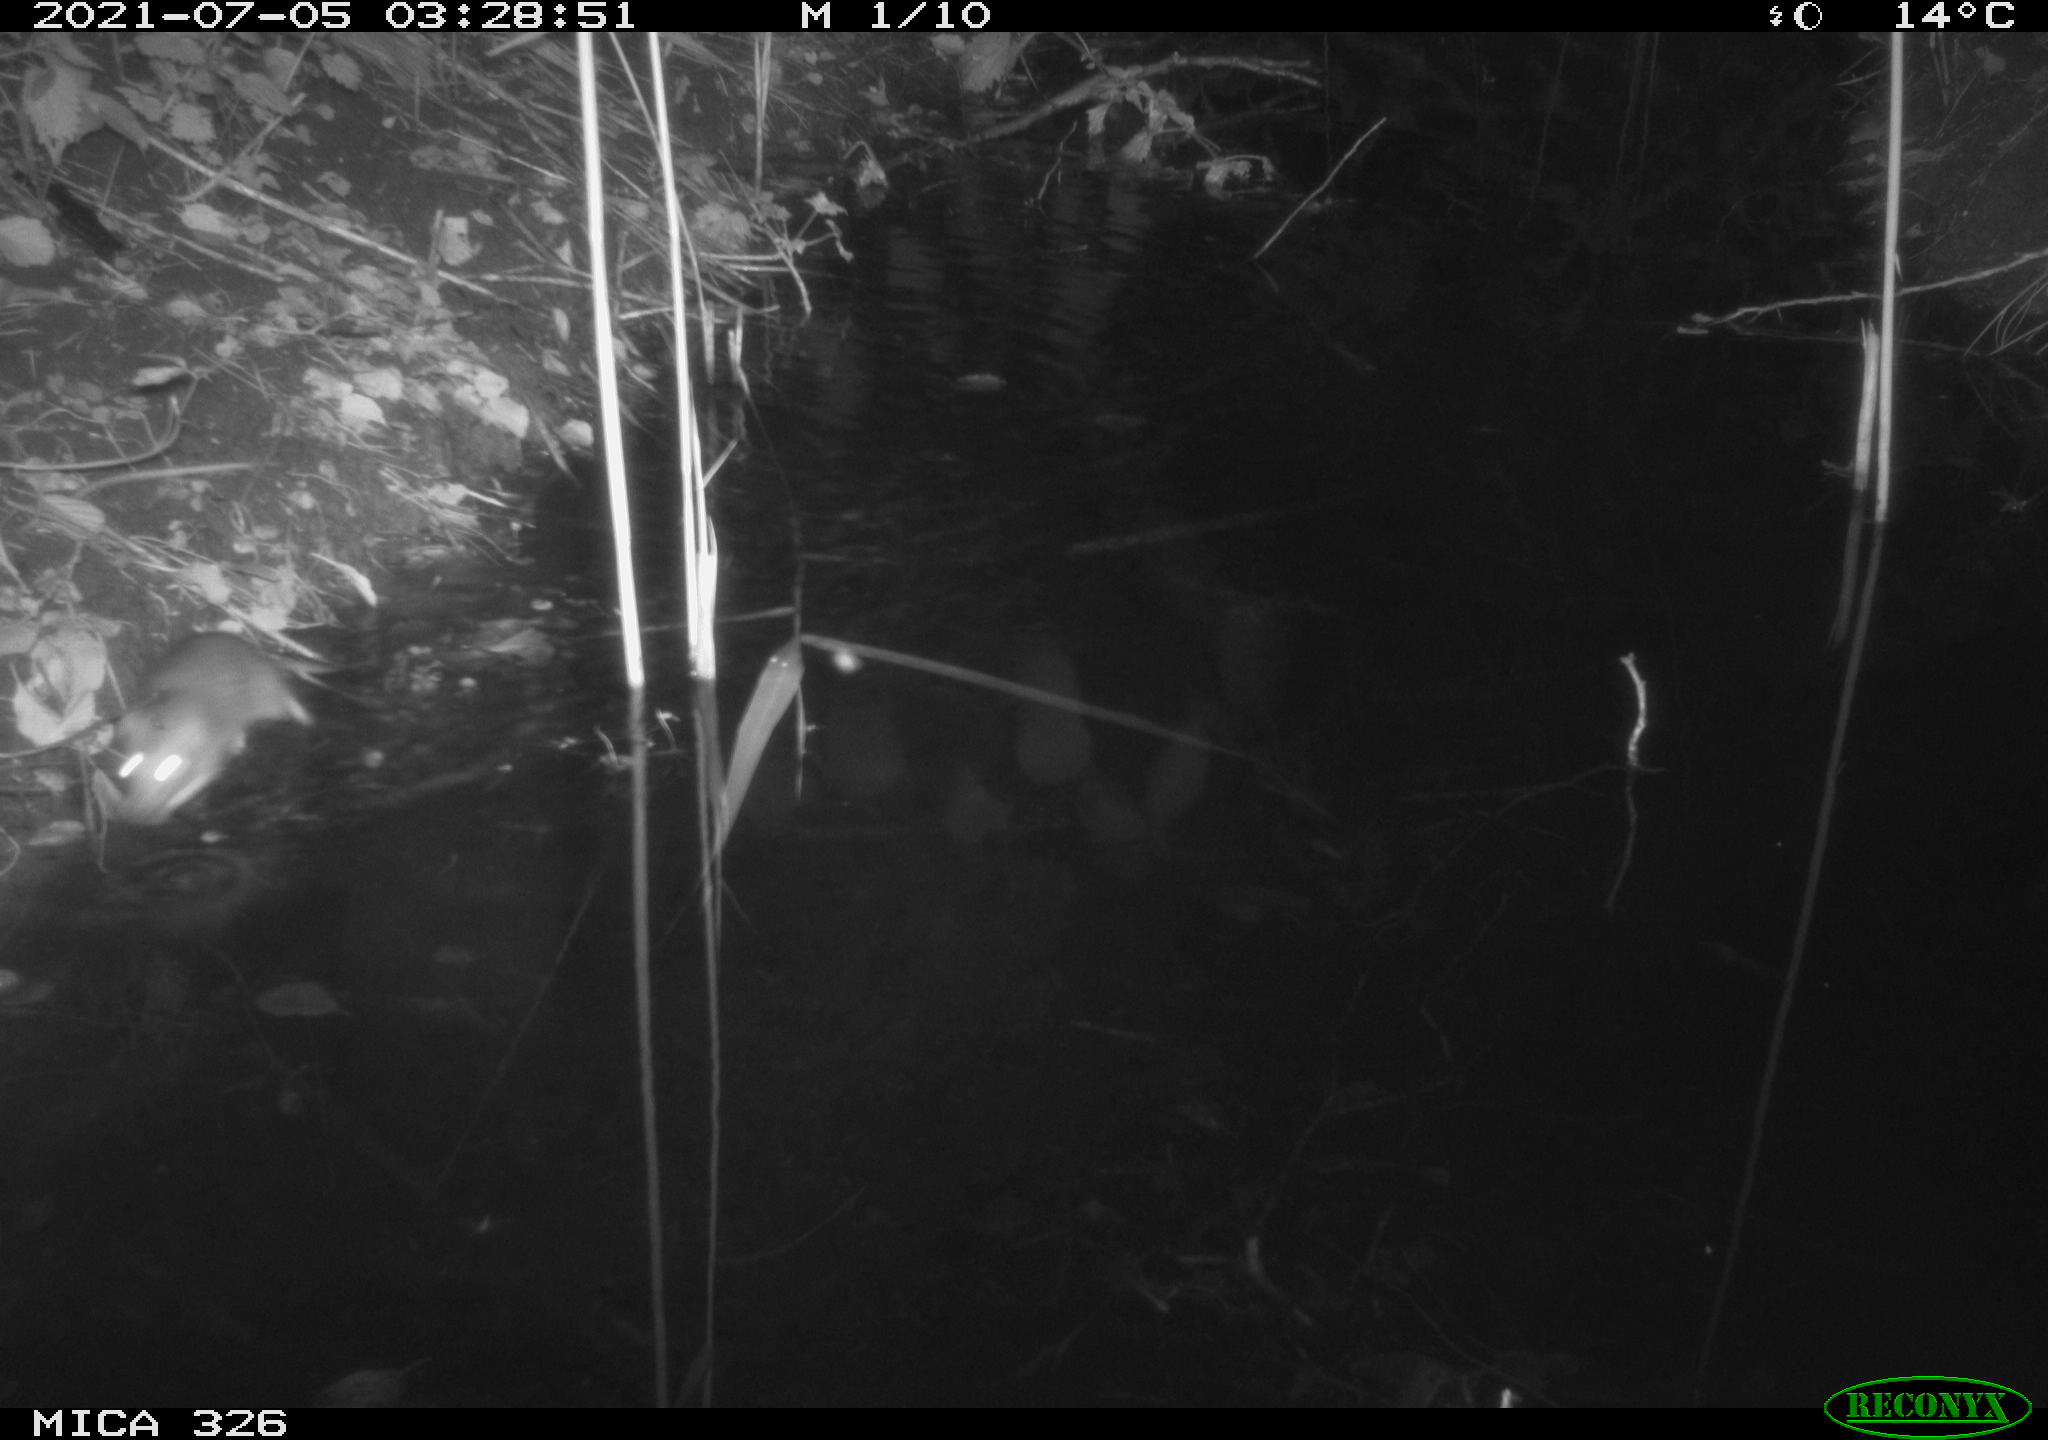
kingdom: Animalia
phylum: Chordata
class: Mammalia
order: Rodentia
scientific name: Rodentia
